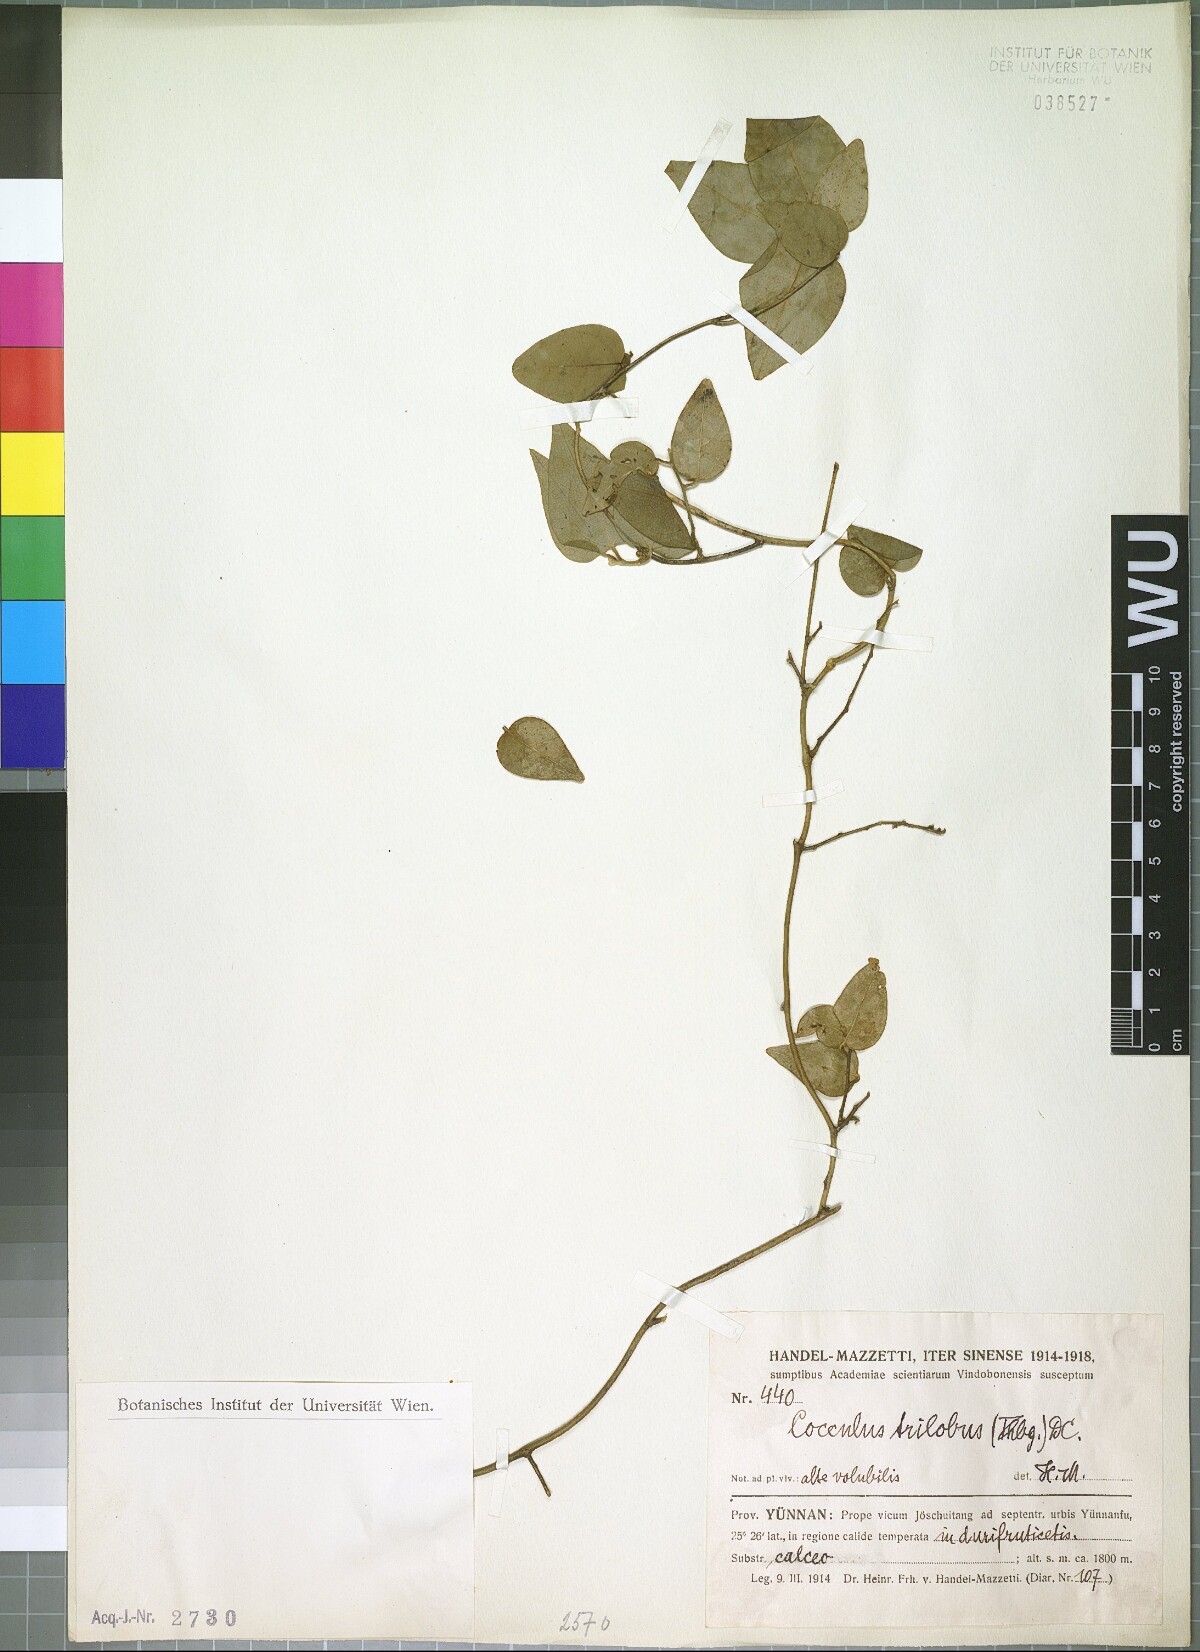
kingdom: Plantae
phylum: Tracheophyta
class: Magnoliopsida
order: Ranunculales
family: Menispermaceae
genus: Cocculus
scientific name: Cocculus orbiculatus
